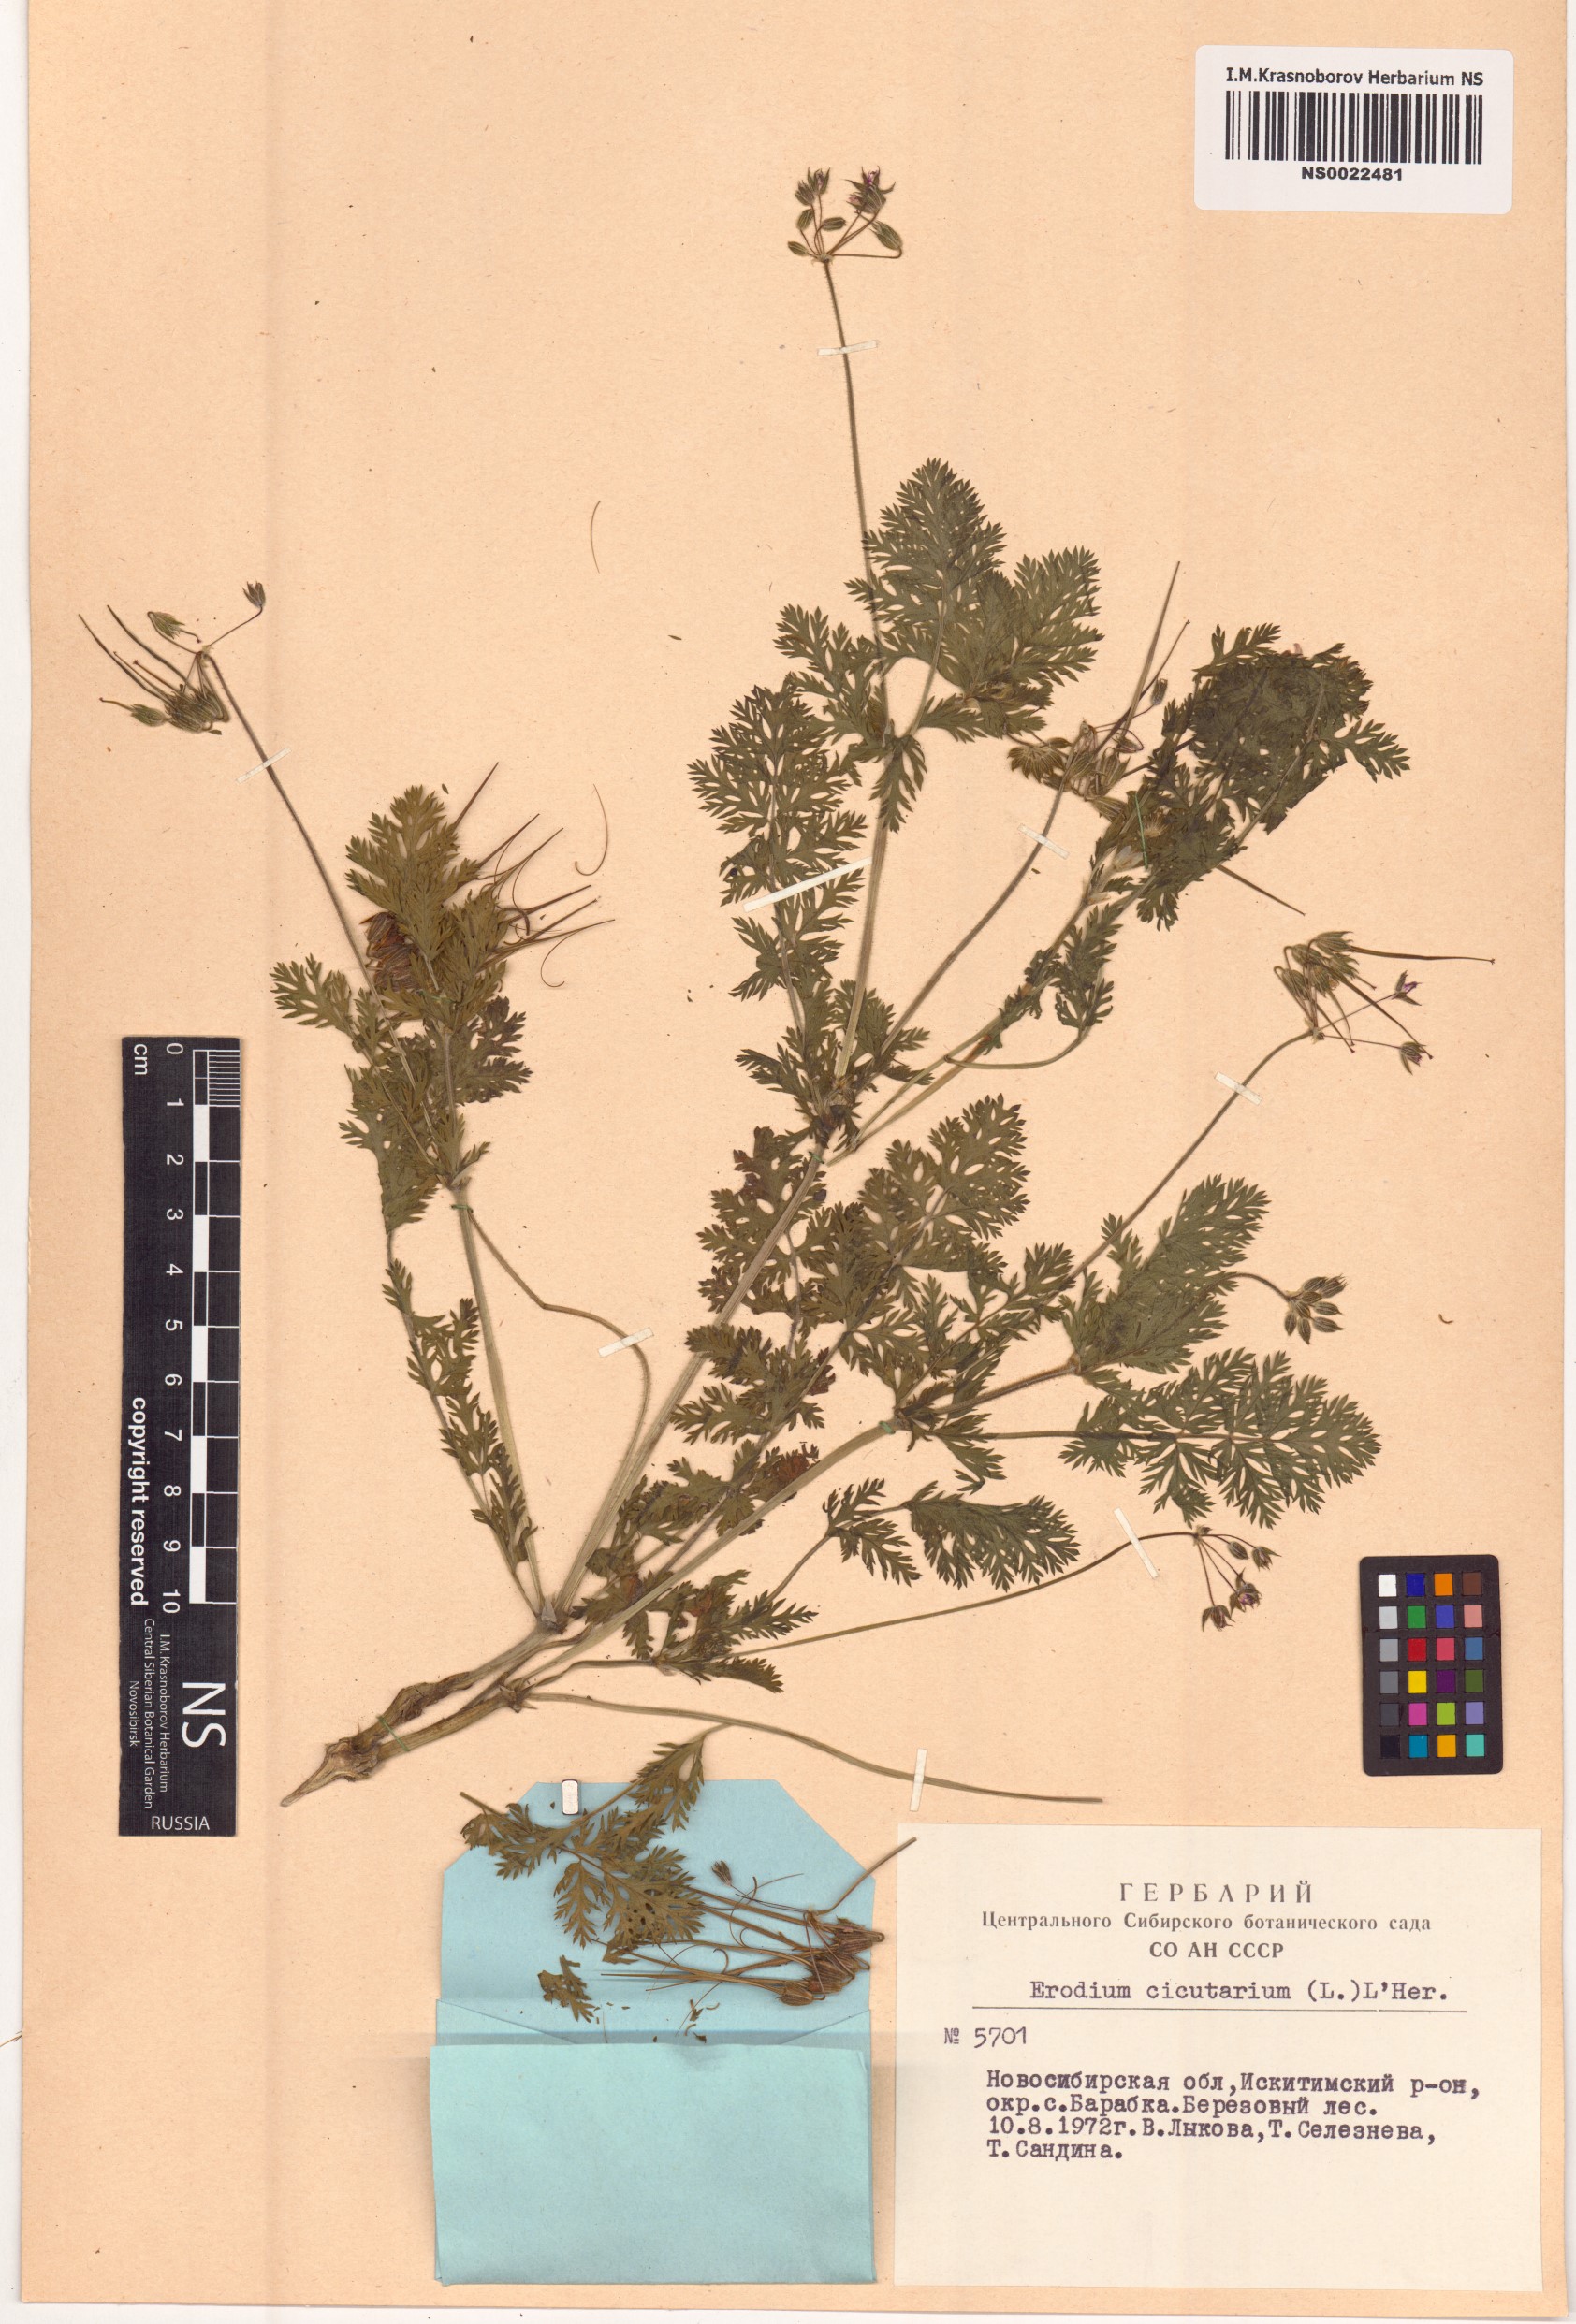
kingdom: Plantae
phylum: Tracheophyta
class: Magnoliopsida
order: Geraniales
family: Geraniaceae
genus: Erodium
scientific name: Erodium cicutarium
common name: Common stork's-bill
